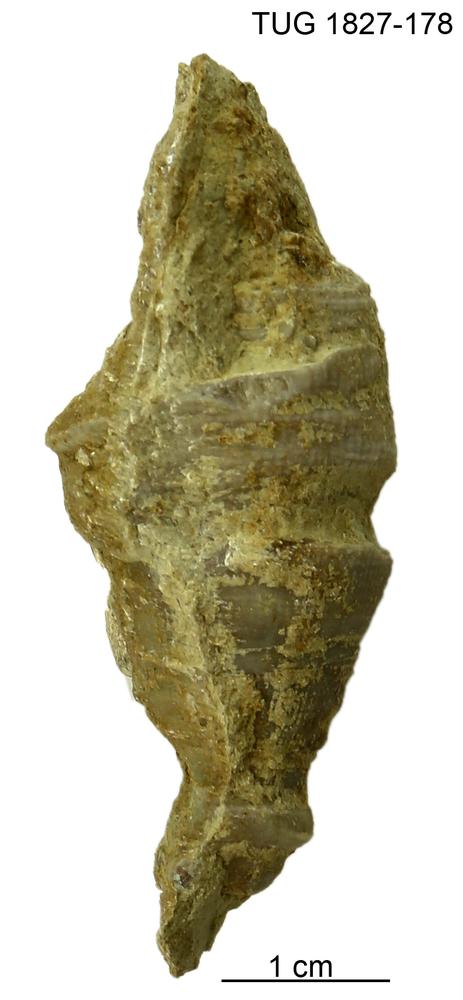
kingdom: Animalia
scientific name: Animalia
